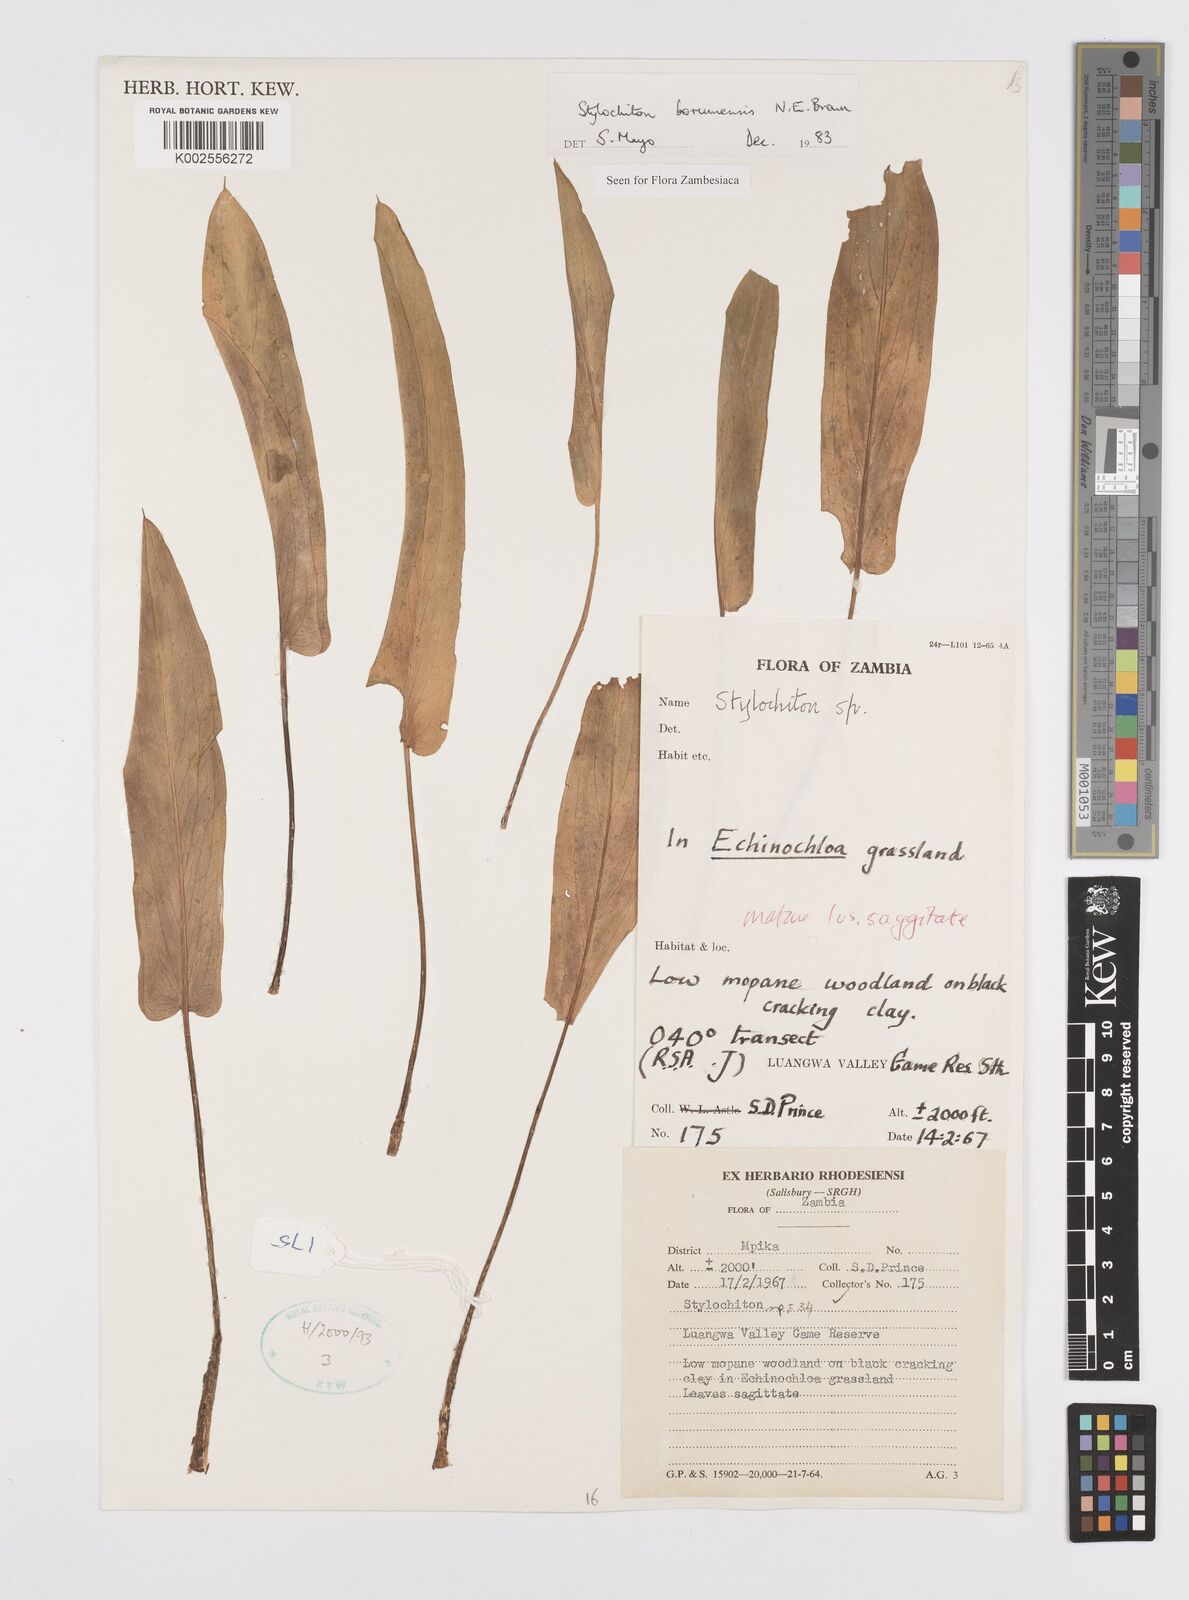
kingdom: Plantae
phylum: Tracheophyta
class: Liliopsida
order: Alismatales
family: Araceae
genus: Stylochaeton
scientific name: Stylochaeton borumense
